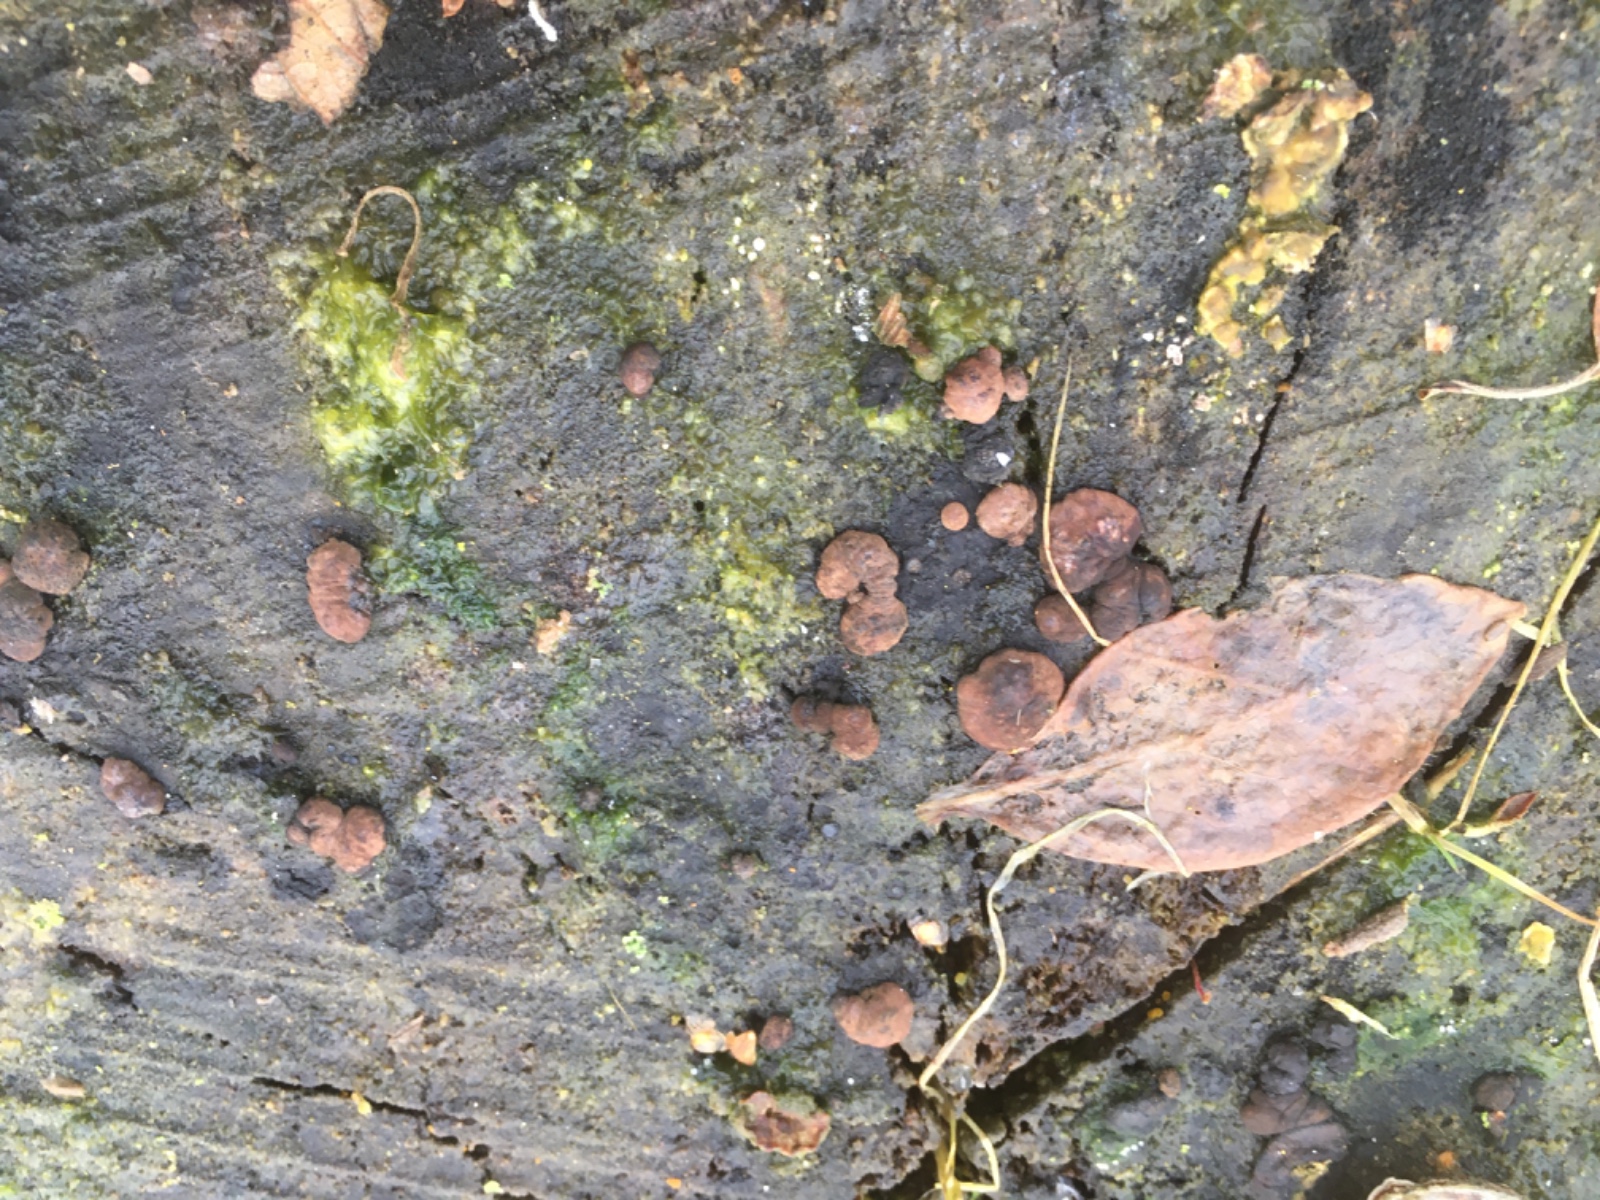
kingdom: Fungi
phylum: Ascomycota
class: Sordariomycetes
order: Xylariales
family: Hypoxylaceae
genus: Jackrogersella
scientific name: Jackrogersella multiformis
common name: foranderlig kulbær
